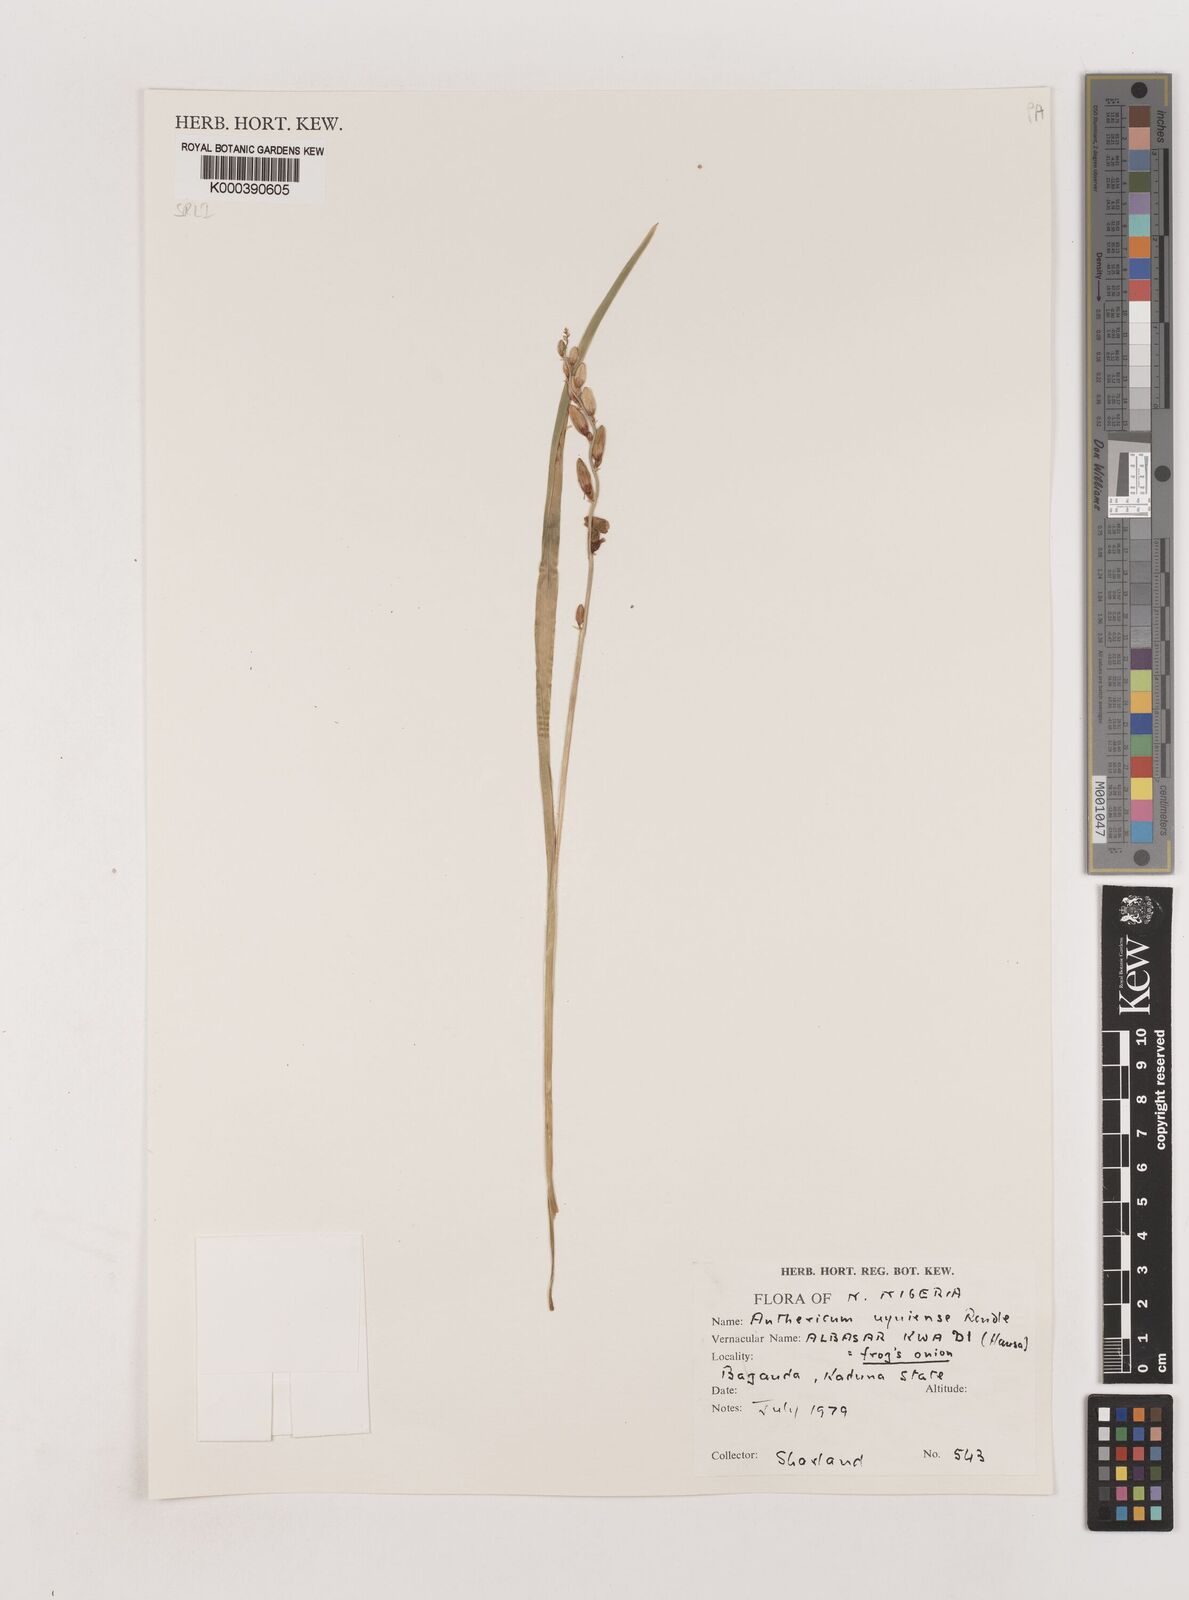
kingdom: Plantae
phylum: Tracheophyta
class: Liliopsida
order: Asparagales
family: Asparagaceae
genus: Chlorophytum
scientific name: Chlorophytum cameronii
